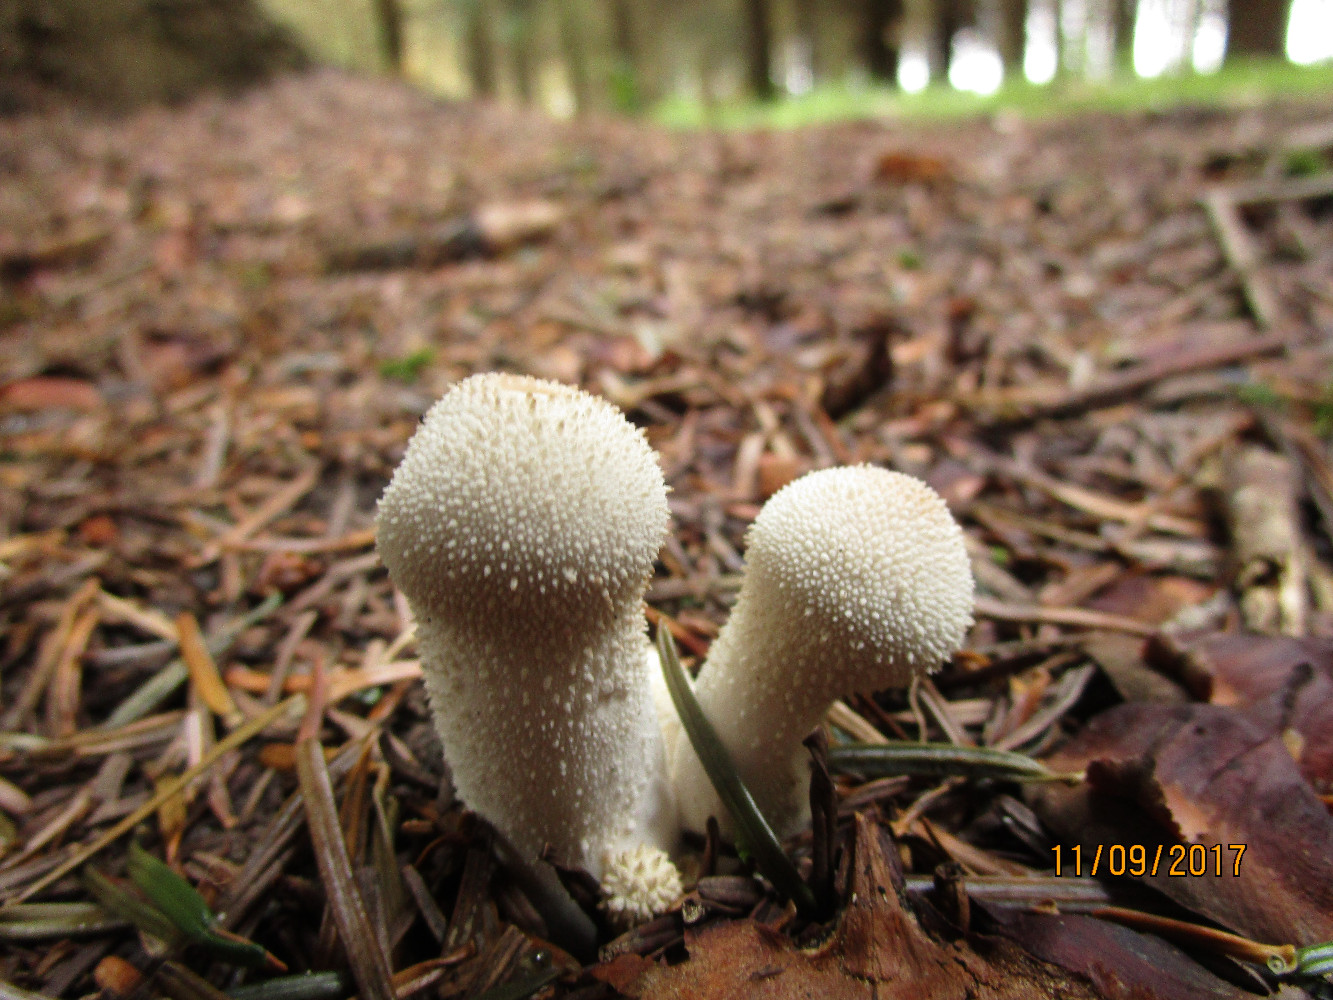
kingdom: Fungi
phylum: Basidiomycota
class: Agaricomycetes
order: Agaricales
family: Lycoperdaceae
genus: Lycoperdon
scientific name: Lycoperdon perlatum
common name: krystal-støvbold
